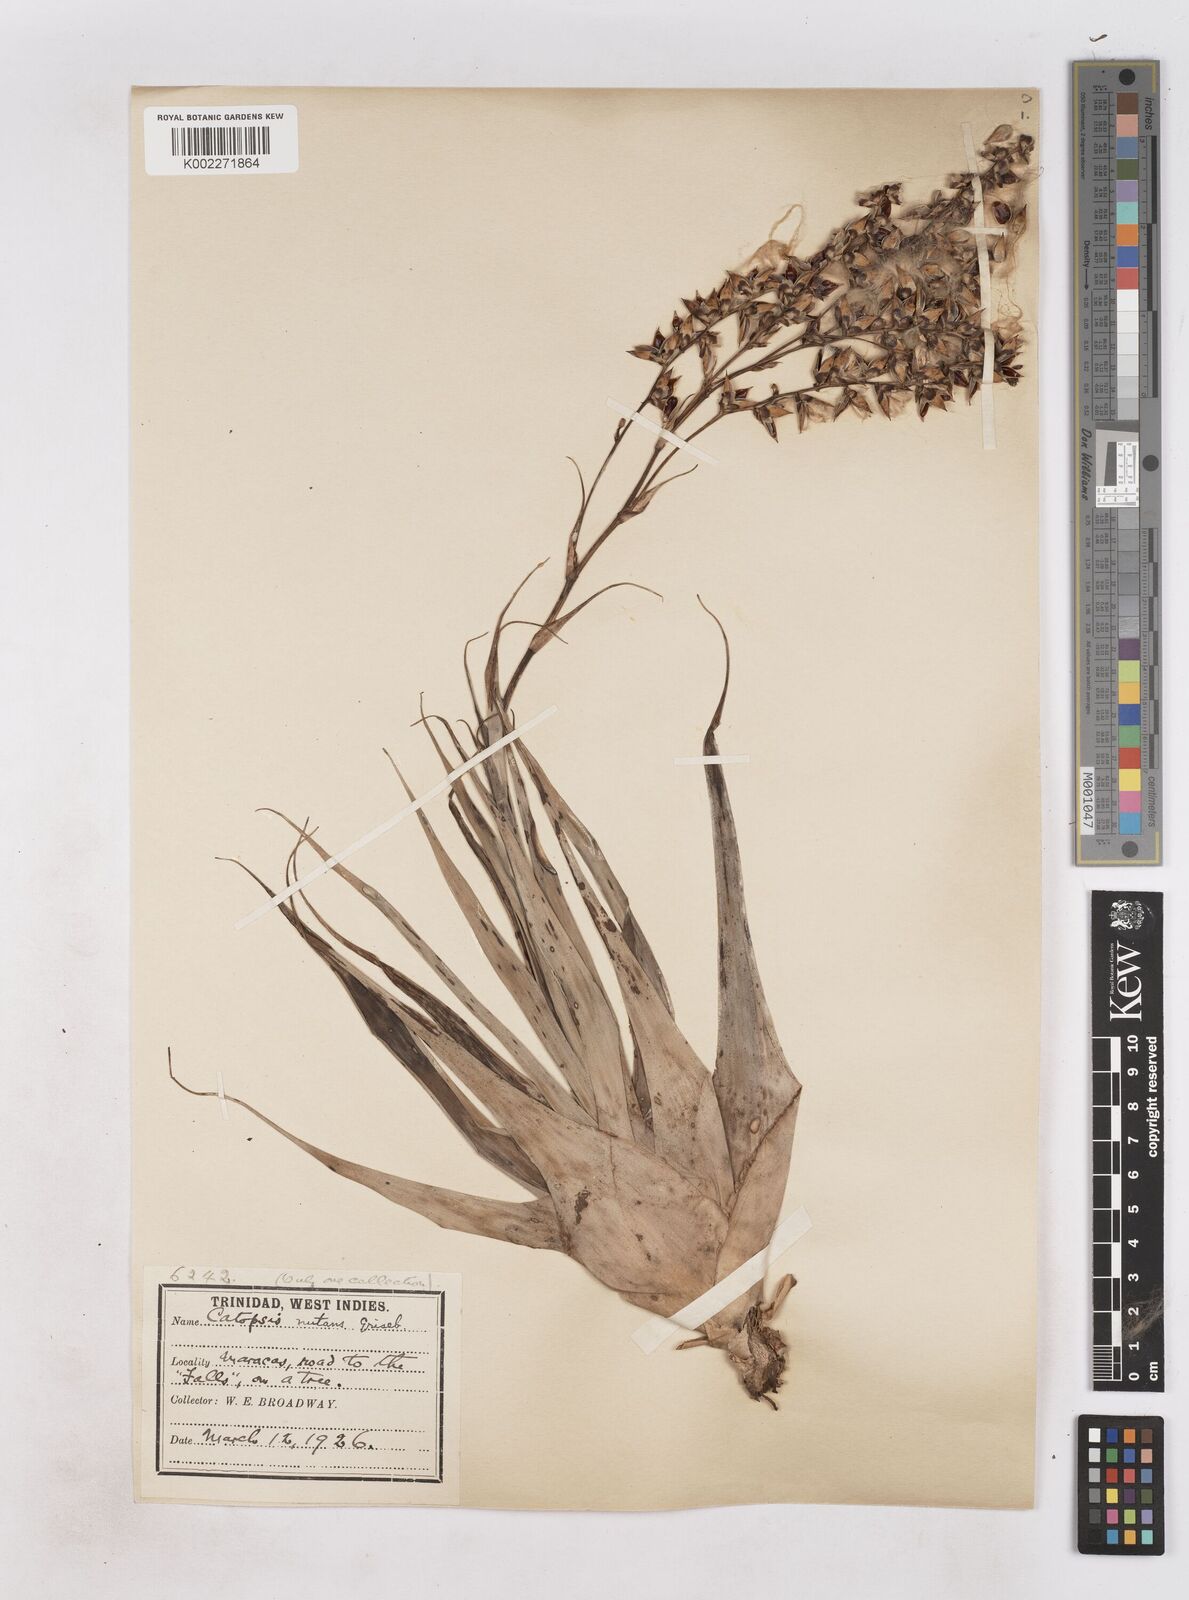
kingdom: Plantae
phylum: Tracheophyta
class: Liliopsida
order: Poales
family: Bromeliaceae
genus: Catopsis
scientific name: Catopsis nutans
